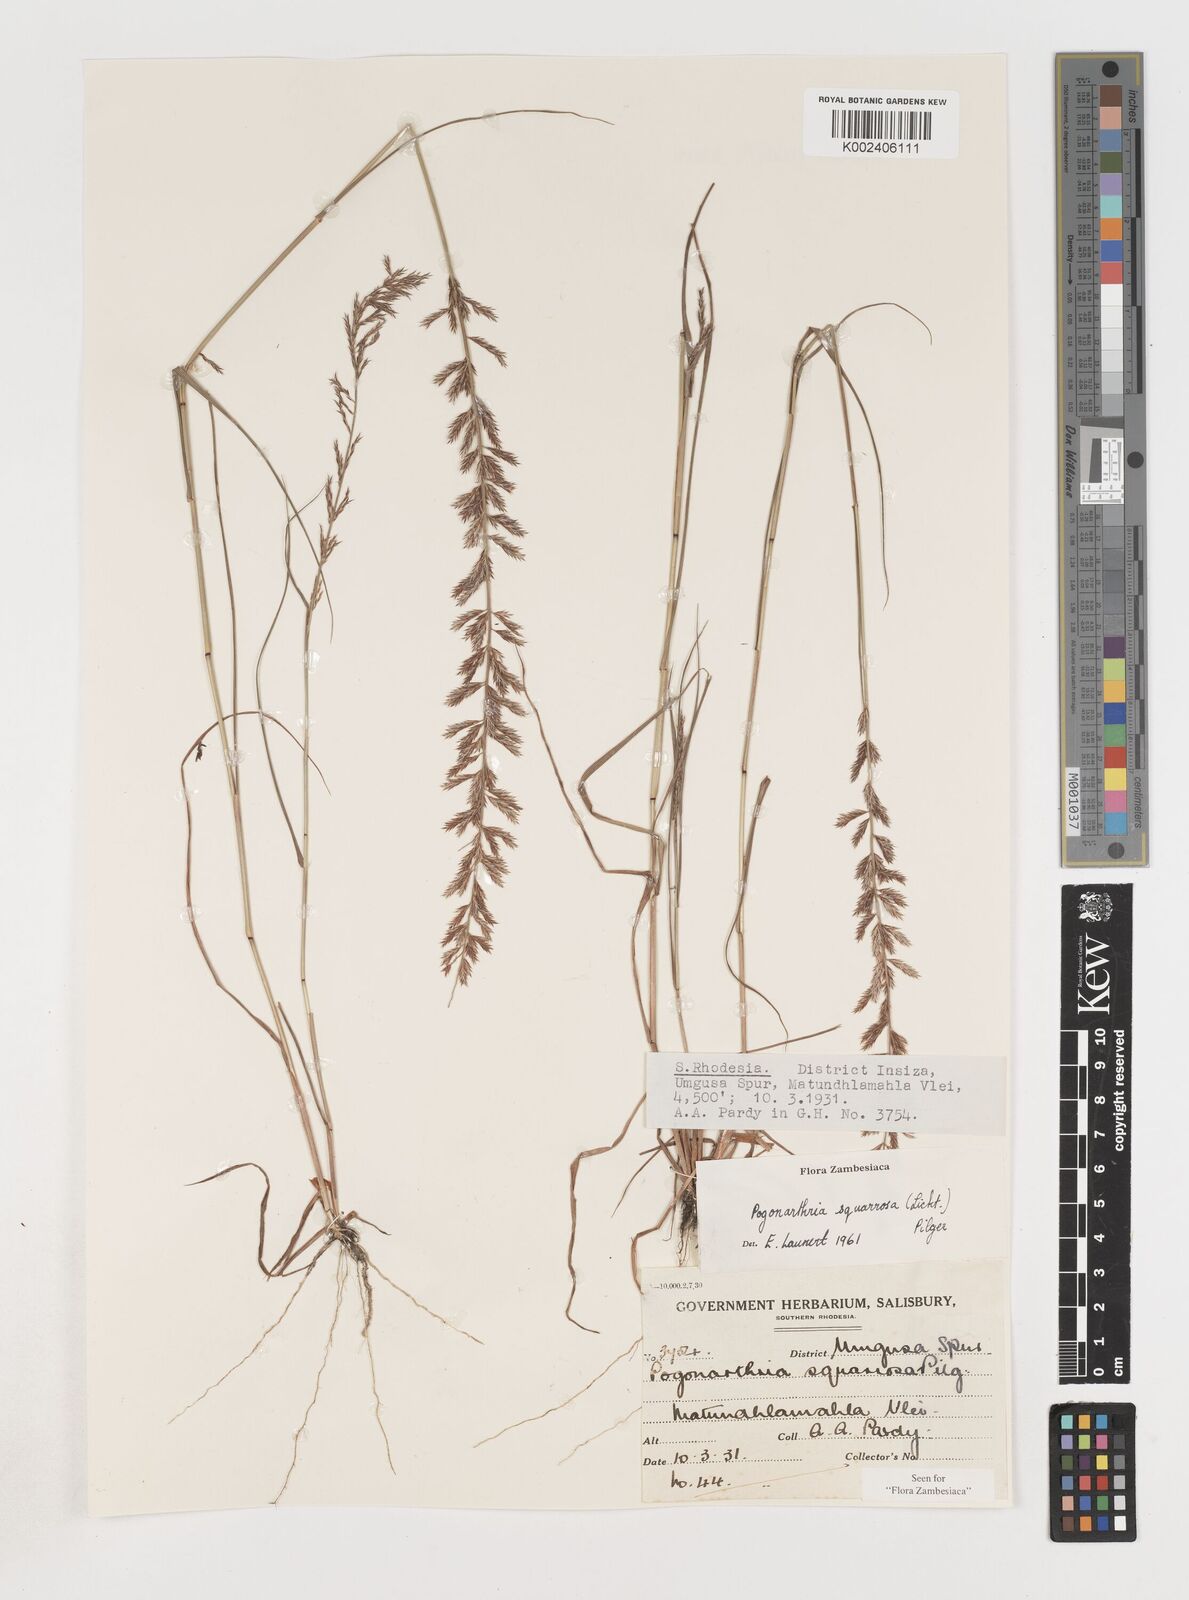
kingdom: Plantae
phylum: Tracheophyta
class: Liliopsida
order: Poales
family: Poaceae
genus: Pogonarthria
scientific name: Pogonarthria squarrosa
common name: Grass
